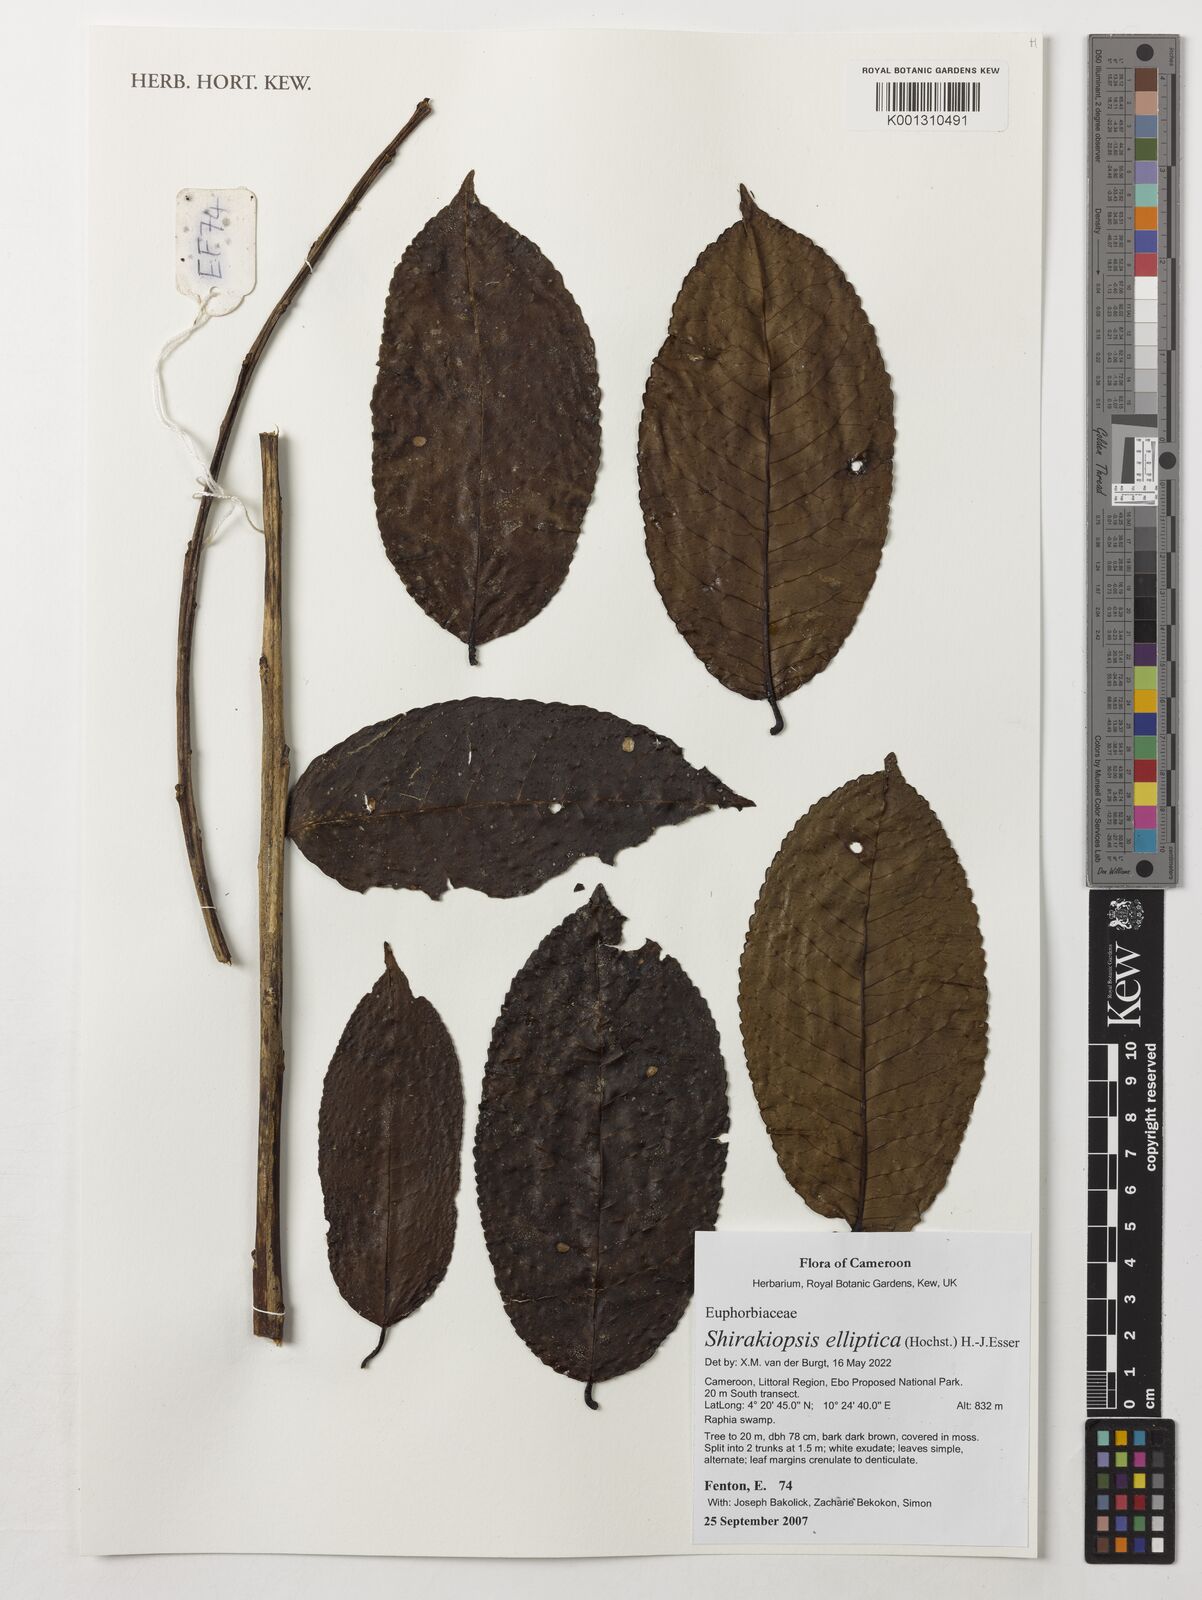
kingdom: Plantae
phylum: Tracheophyta
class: Magnoliopsida
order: Malpighiales
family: Euphorbiaceae
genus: Shirakiopsis
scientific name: Shirakiopsis elliptica
